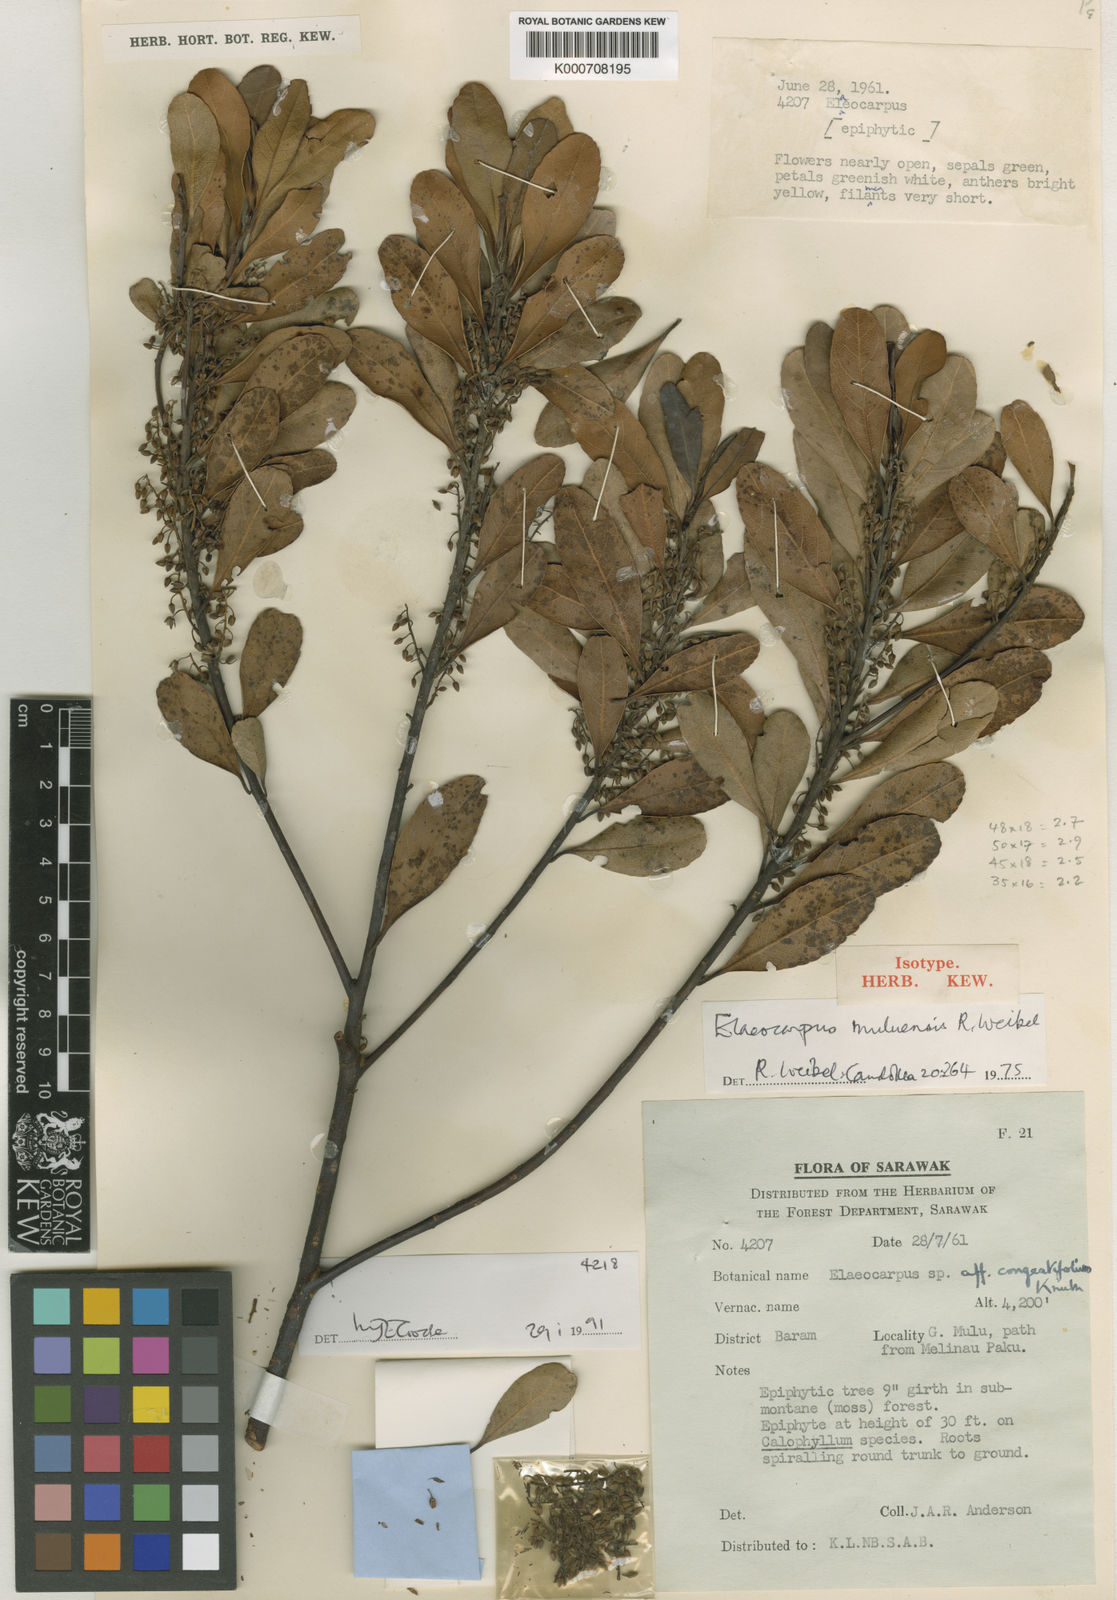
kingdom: Plantae
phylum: Tracheophyta
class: Magnoliopsida
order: Oxalidales
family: Elaeocarpaceae
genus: Elaeocarpus
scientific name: Elaeocarpus muluensis
